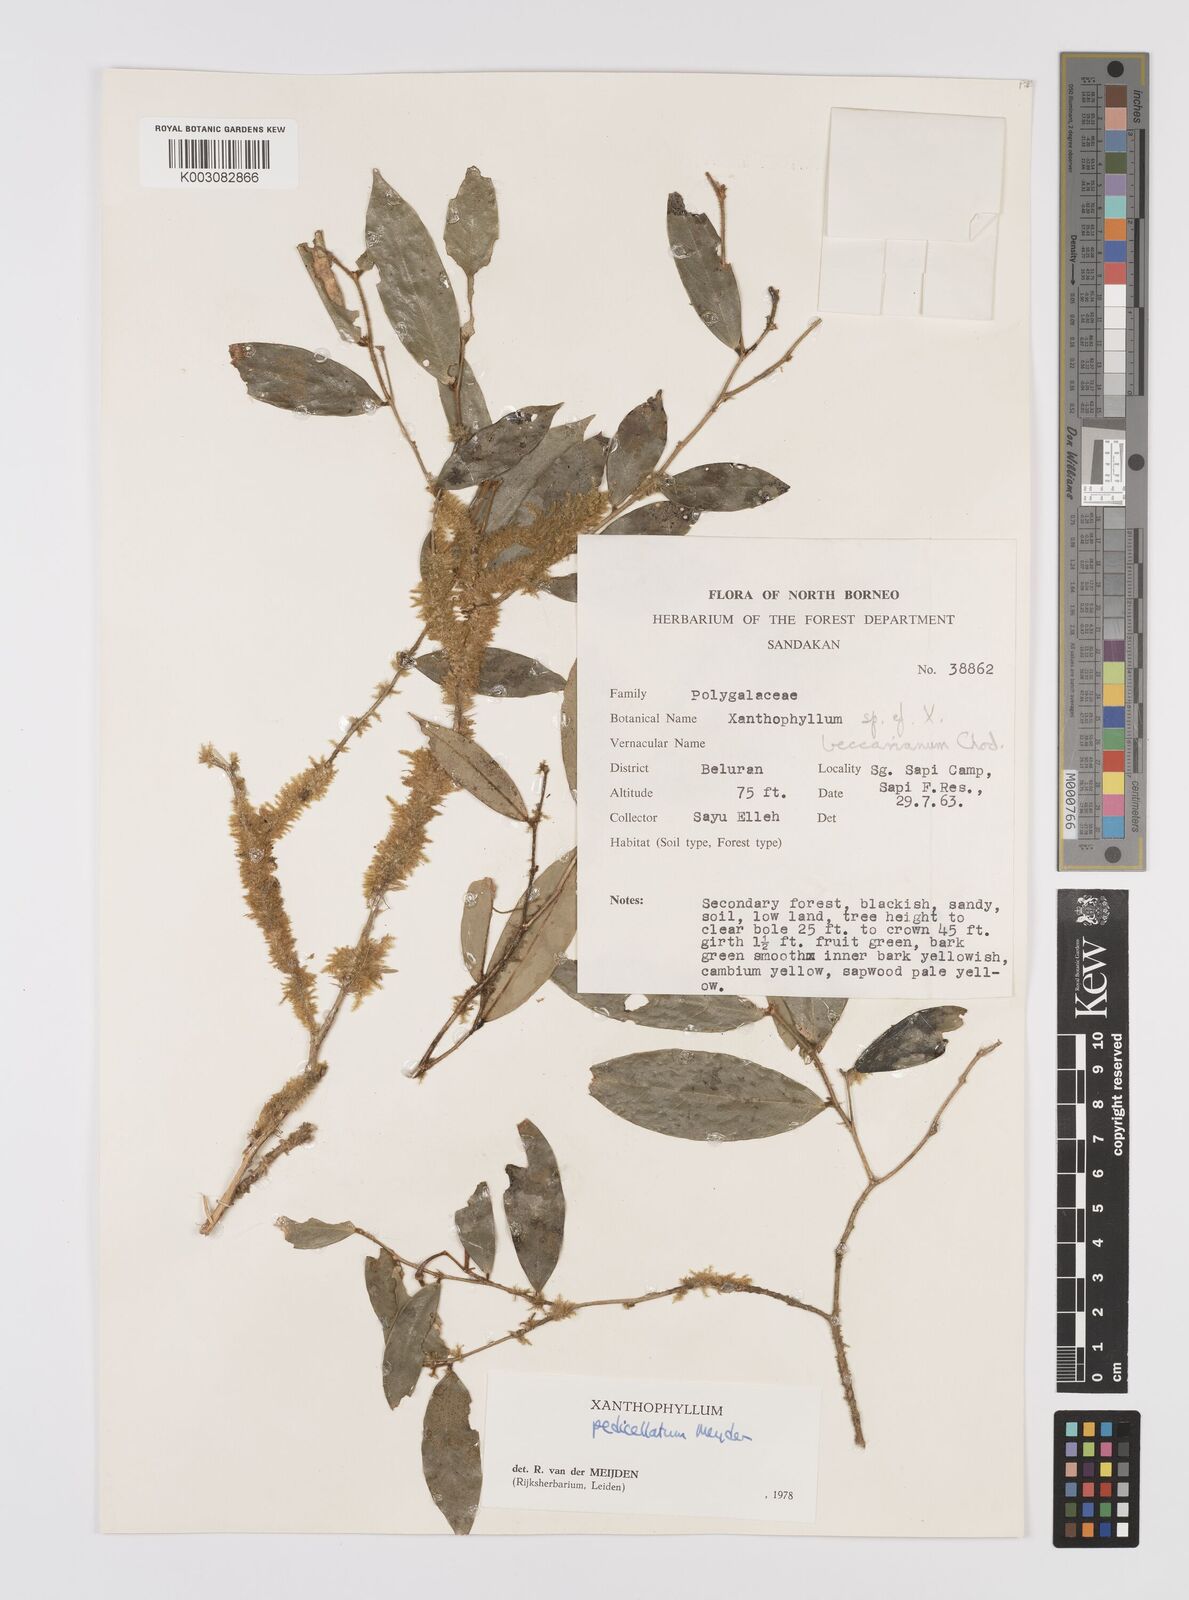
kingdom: Plantae
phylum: Tracheophyta
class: Magnoliopsida
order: Fabales
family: Polygalaceae
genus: Xanthophyllum
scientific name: Xanthophyllum pedicellatum
